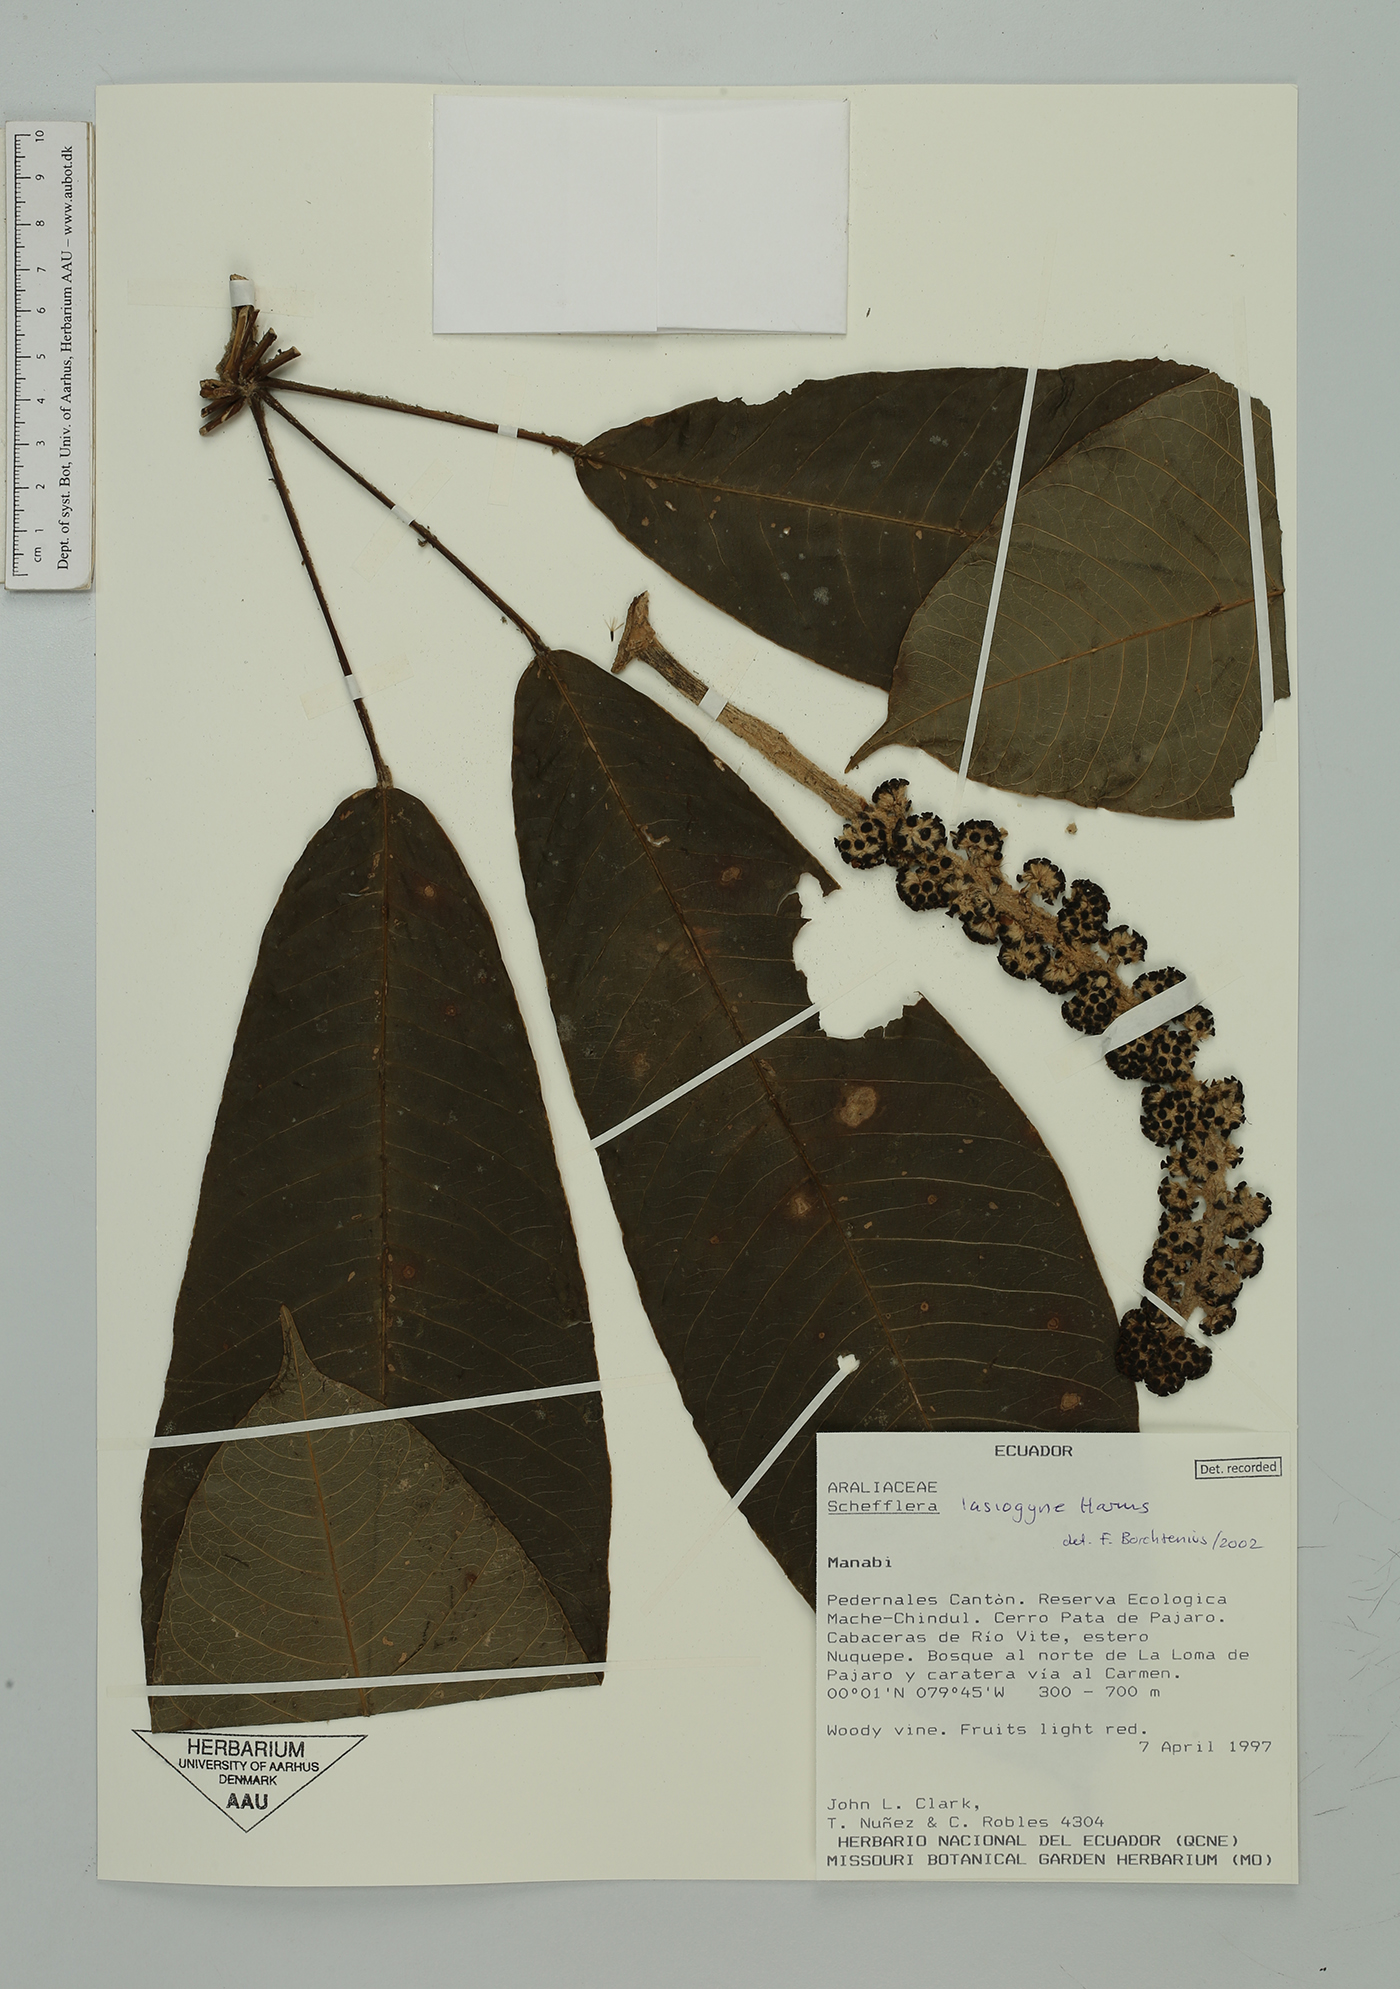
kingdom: Plantae
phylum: Tracheophyta
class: Magnoliopsida
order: Apiales
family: Araliaceae
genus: Sciodaphyllum
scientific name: Sciodaphyllum lasiogyne
